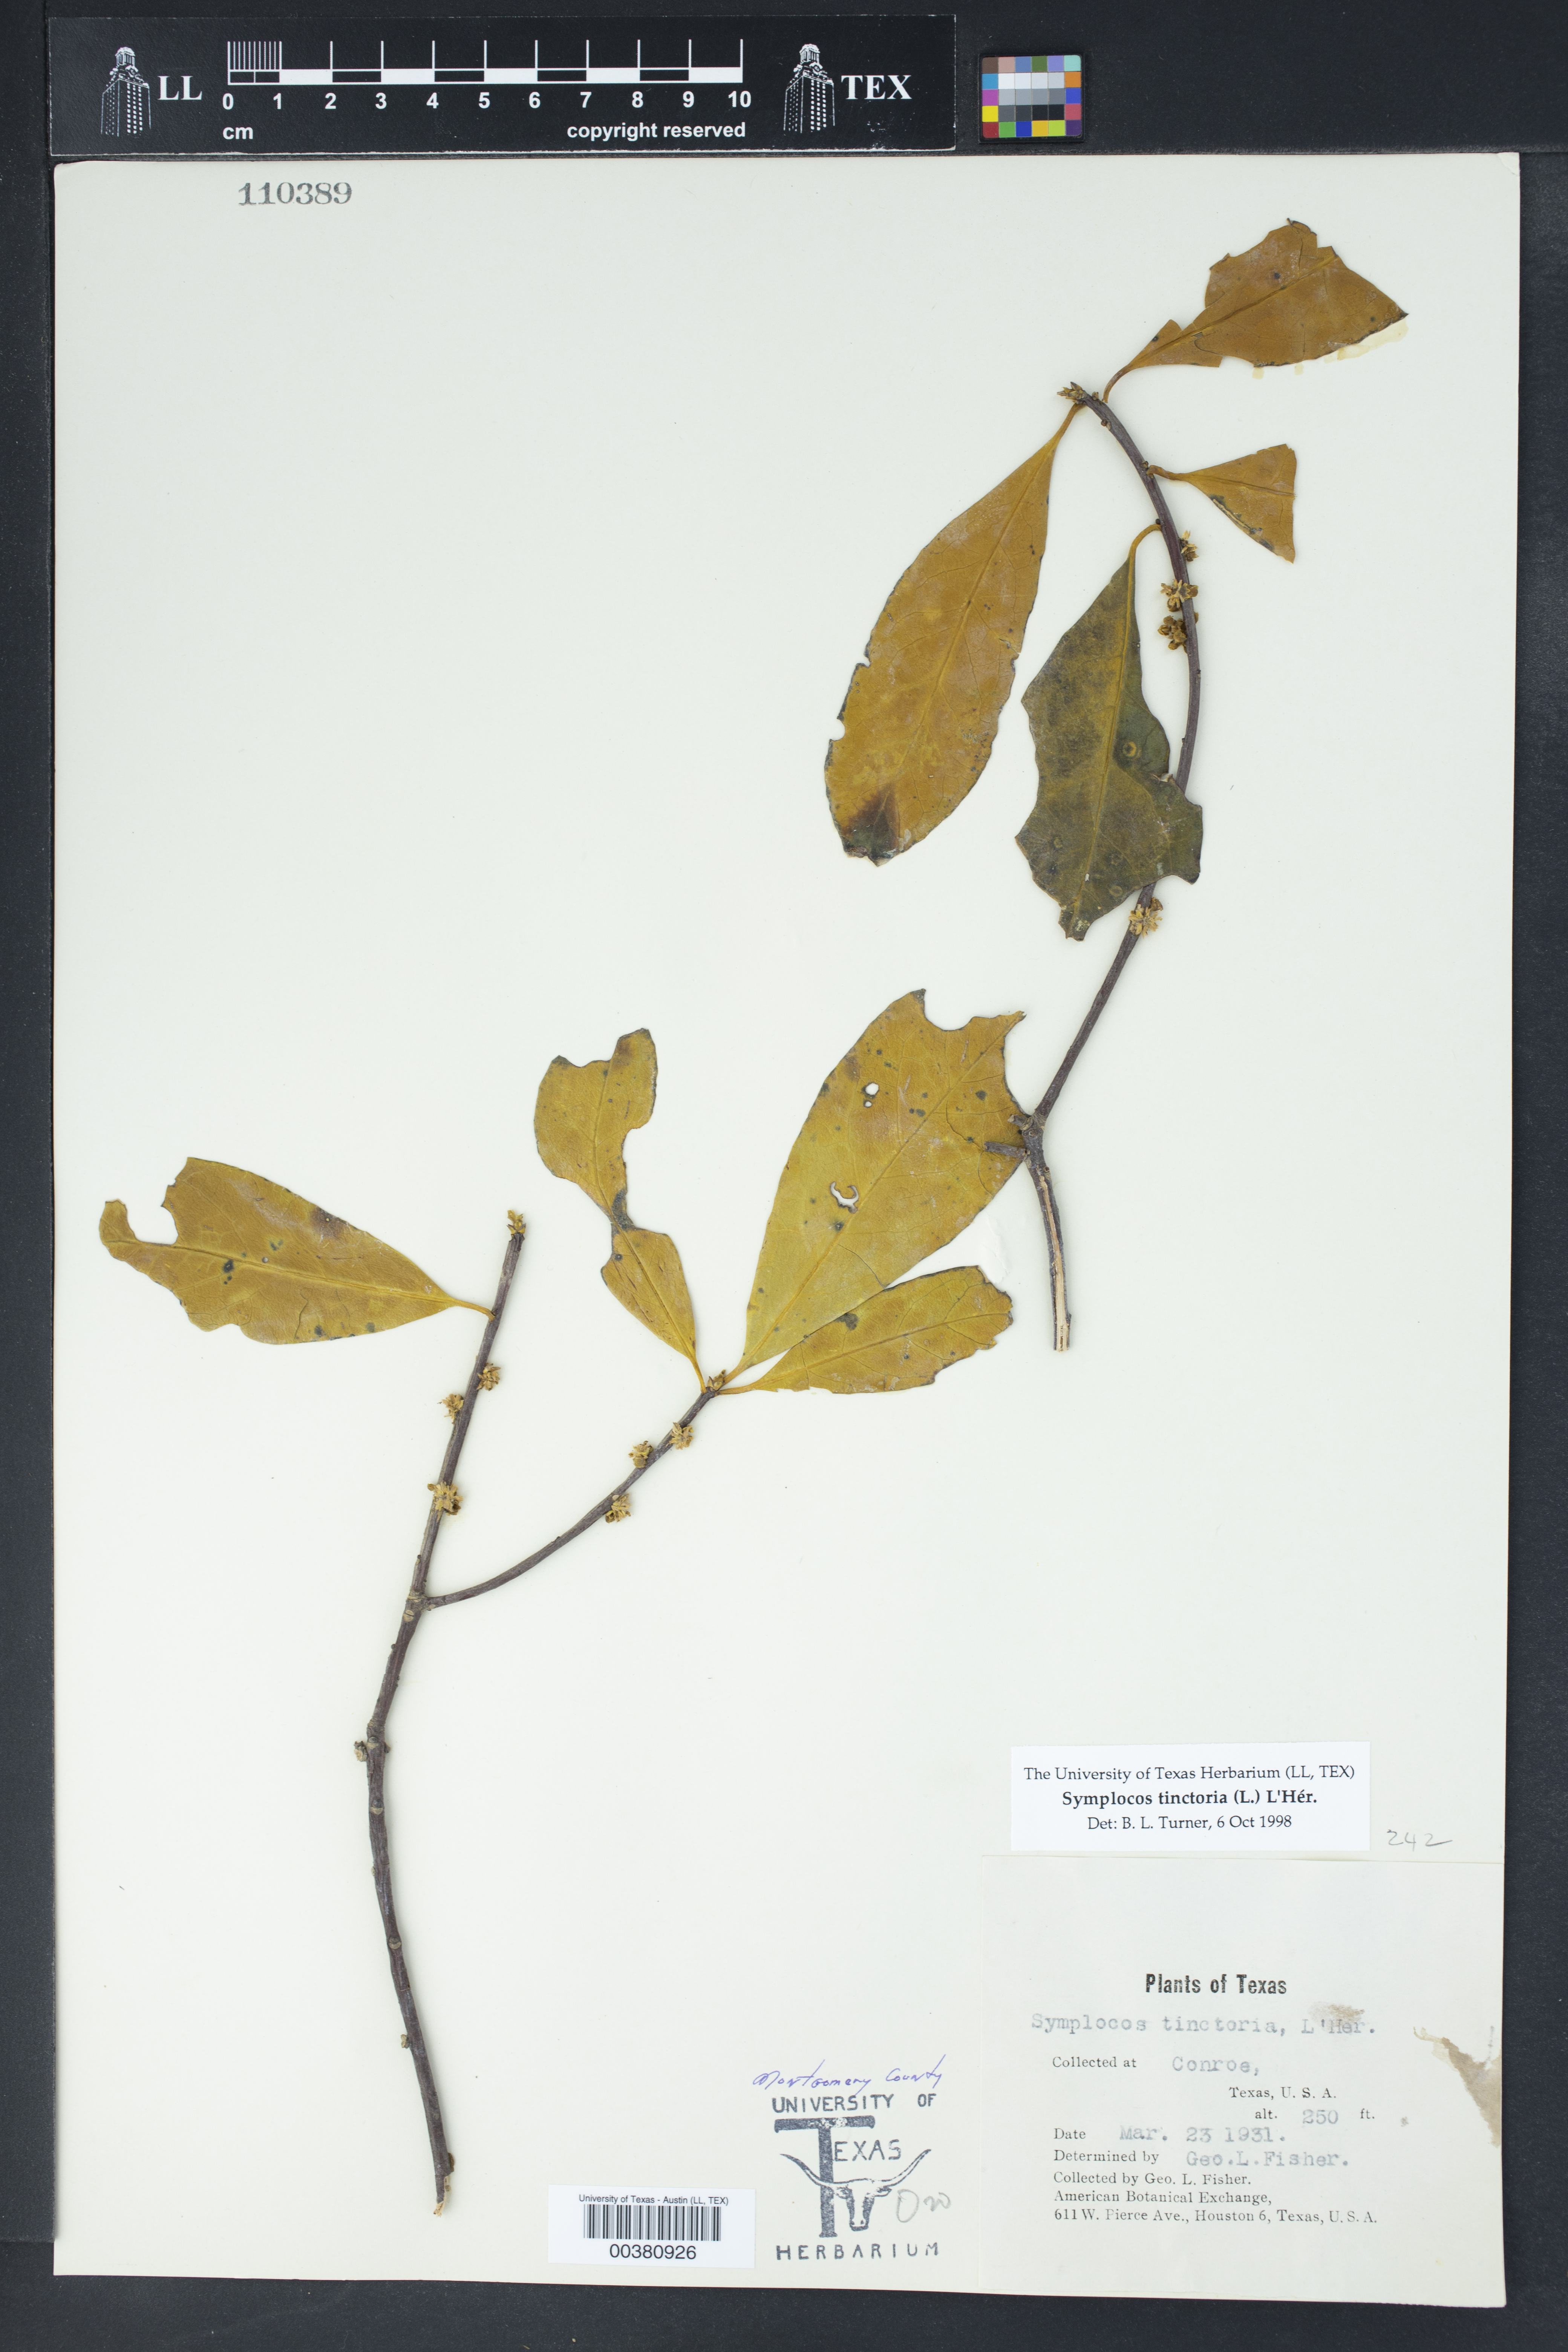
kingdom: Plantae
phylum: Tracheophyta
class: Magnoliopsida
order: Ericales
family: Symplocaceae
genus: Symplocos
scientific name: Symplocos tinctoria
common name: Horse-sugar
